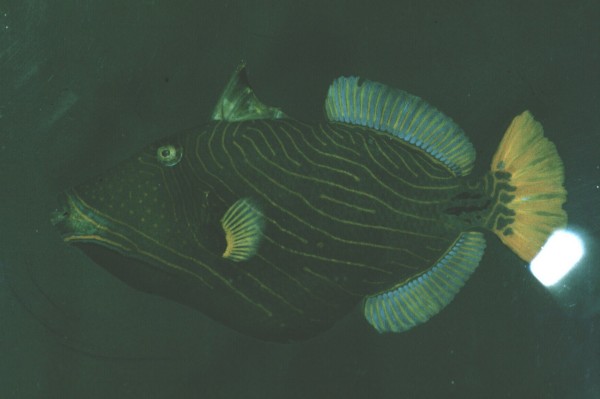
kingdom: Animalia
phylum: Chordata
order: Tetraodontiformes
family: Balistidae
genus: Balistapus
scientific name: Balistapus undulatus
